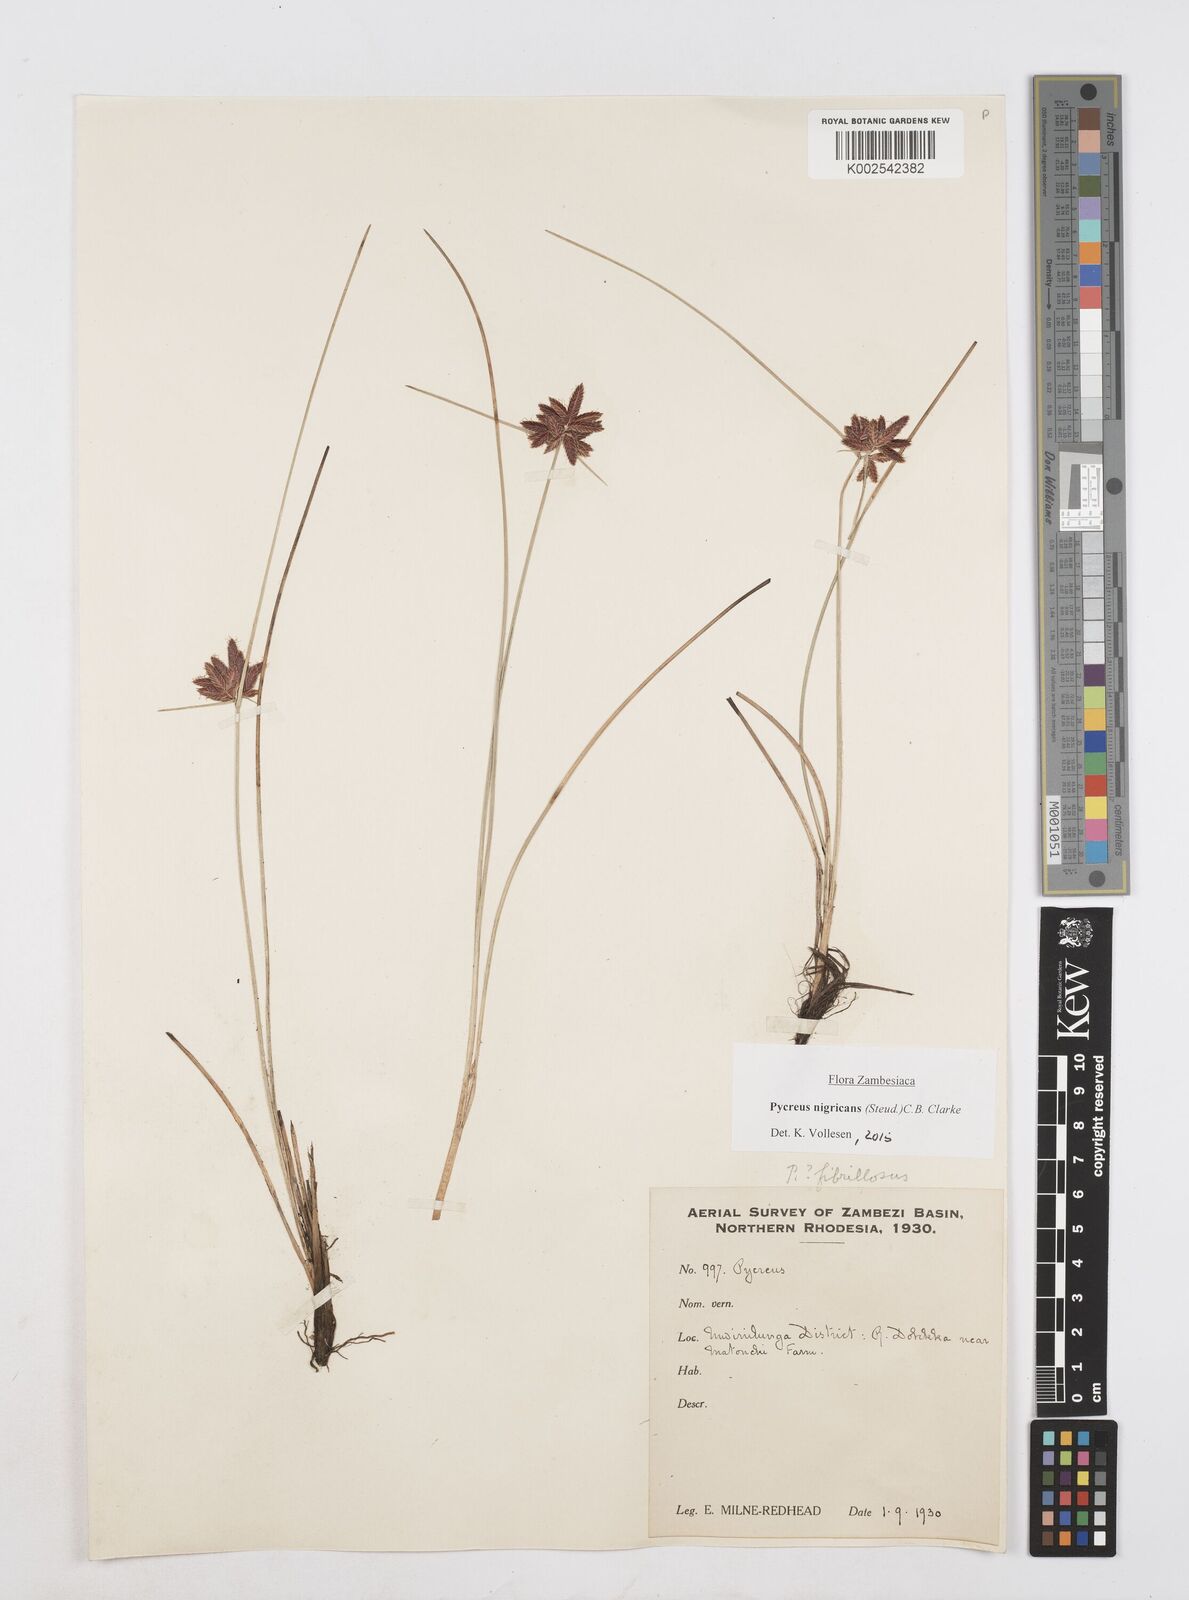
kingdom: Plantae
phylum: Tracheophyta
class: Liliopsida
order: Poales
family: Cyperaceae
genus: Cyperus
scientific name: Cyperus nigricans
